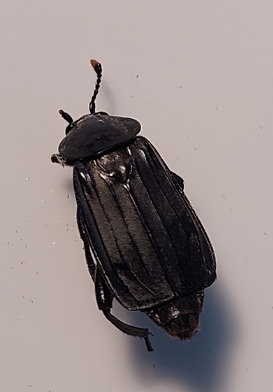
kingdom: Animalia
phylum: Arthropoda
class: Insecta
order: Coleoptera
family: Staphylinidae
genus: Necrodes
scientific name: Necrodes littoralis
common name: Ligrøver
